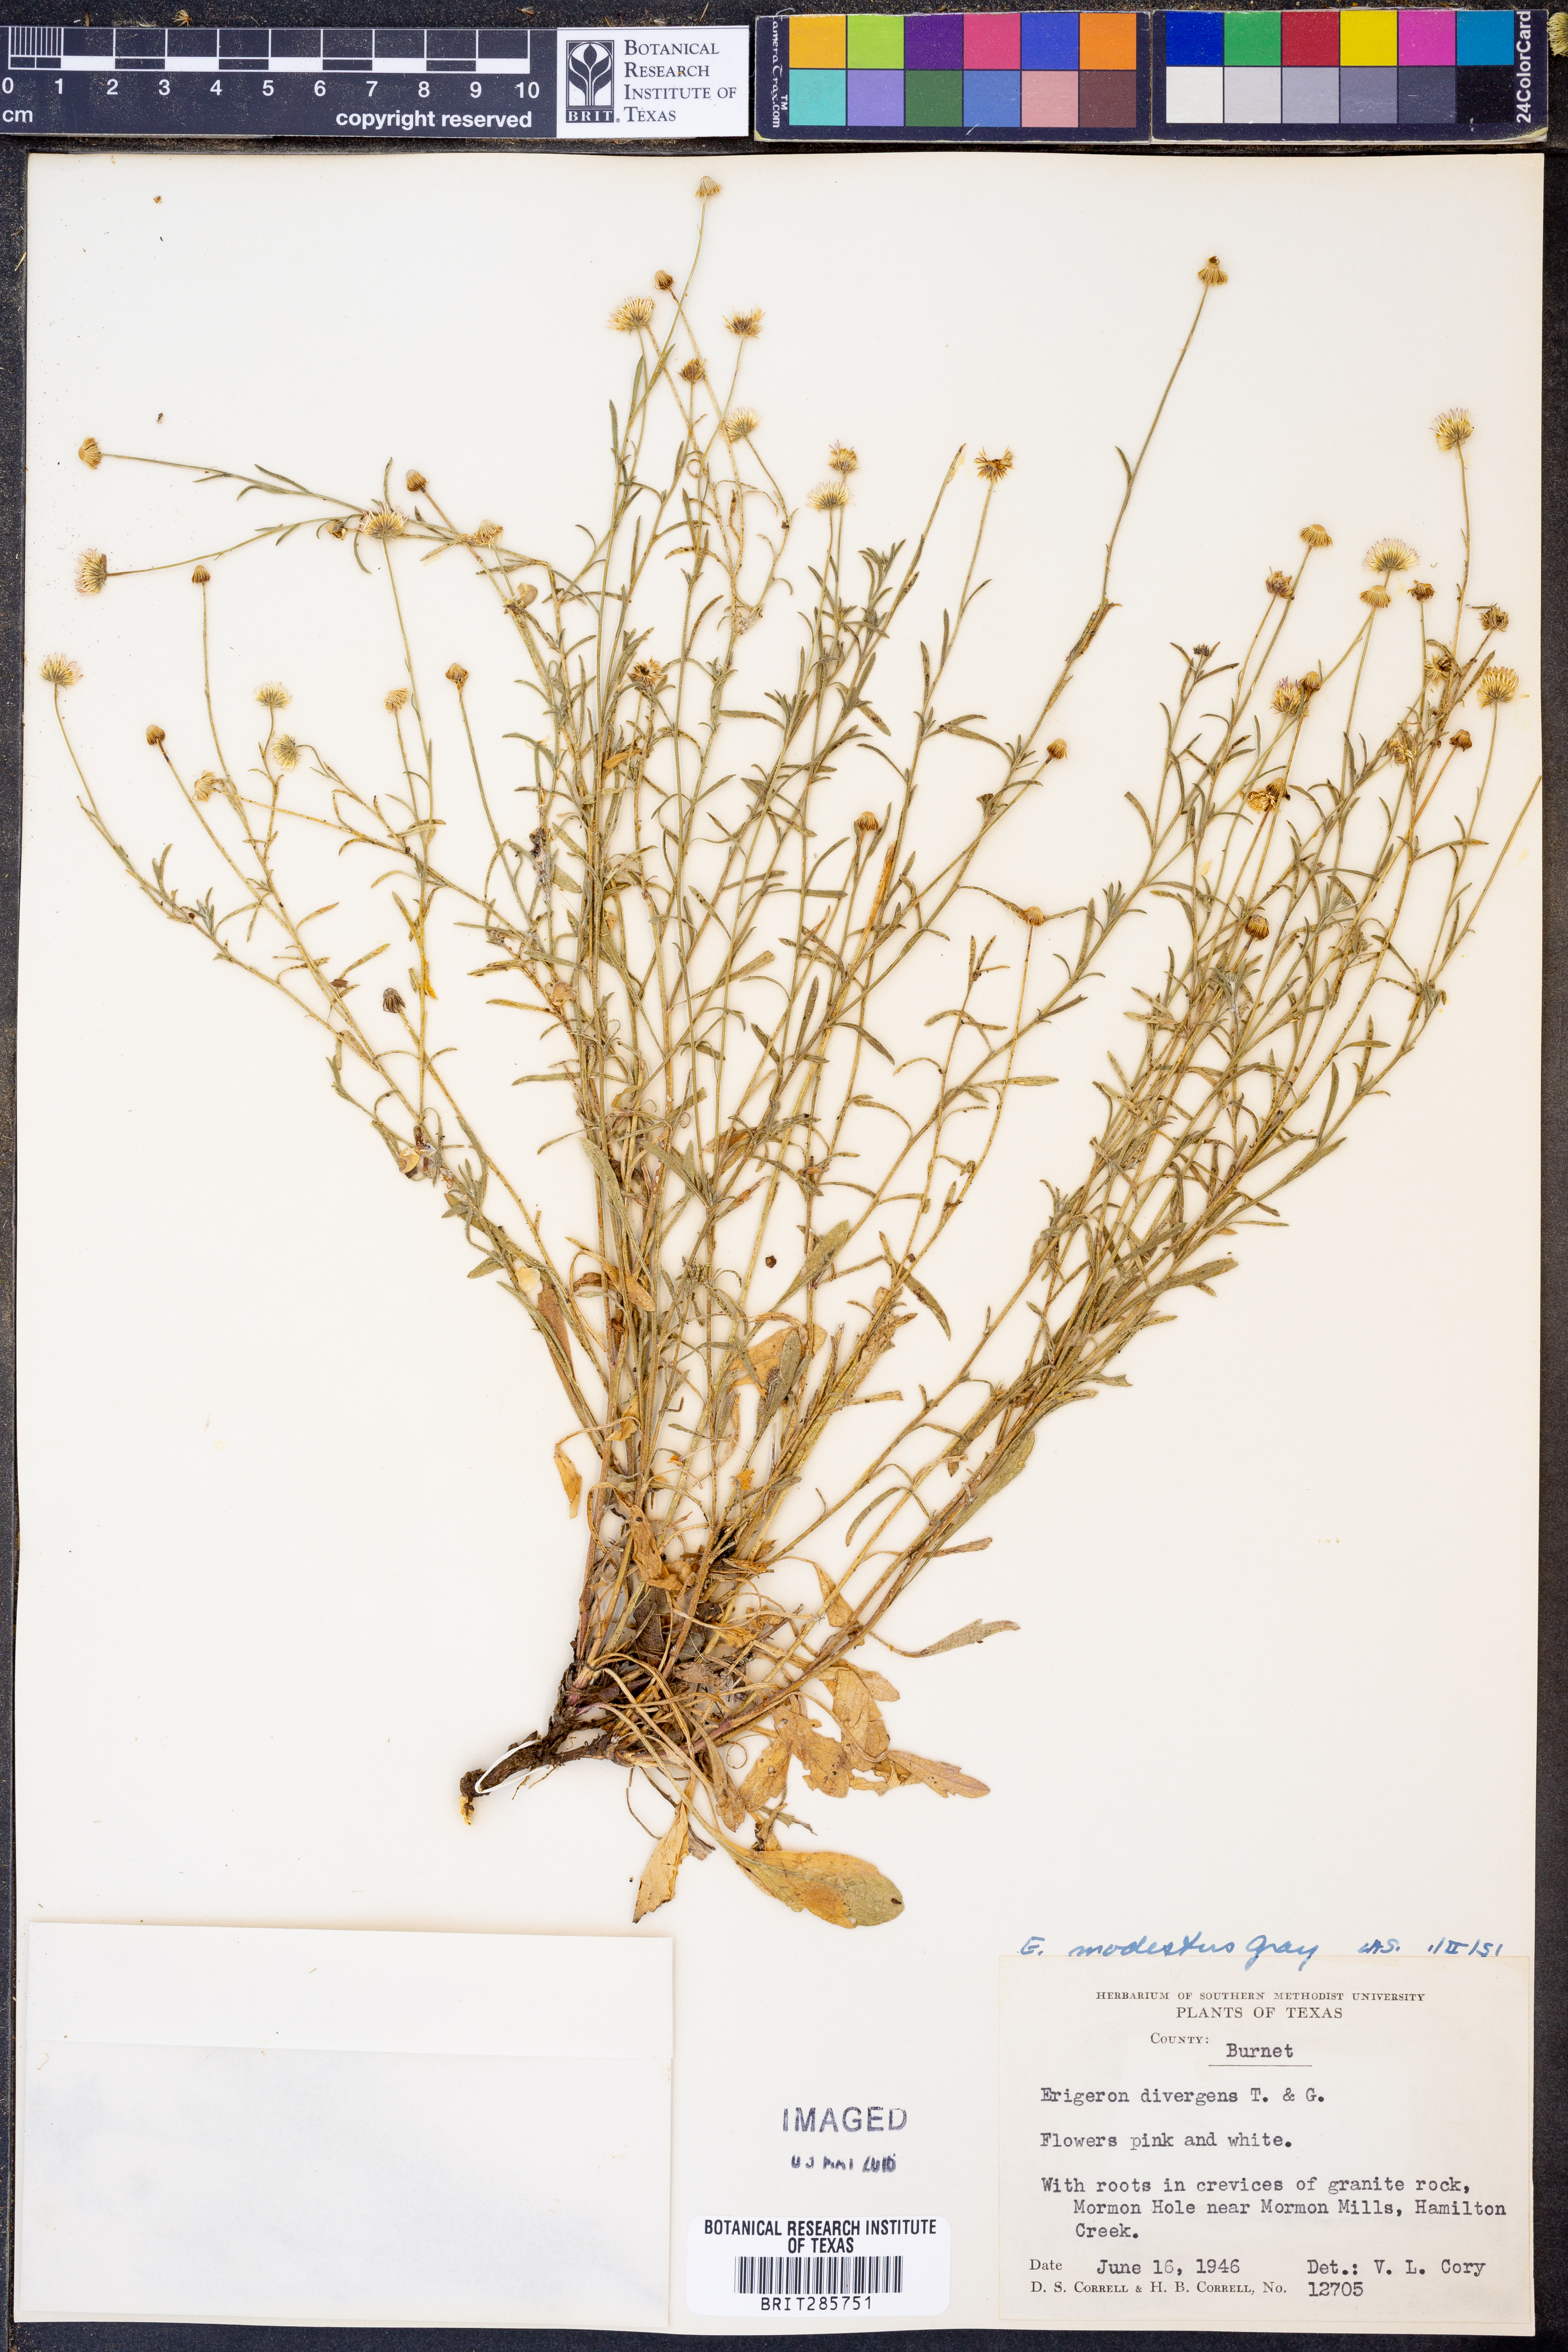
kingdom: Plantae
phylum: Tracheophyta
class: Magnoliopsida
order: Asterales
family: Asteraceae
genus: Erigeron
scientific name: Erigeron modestus
